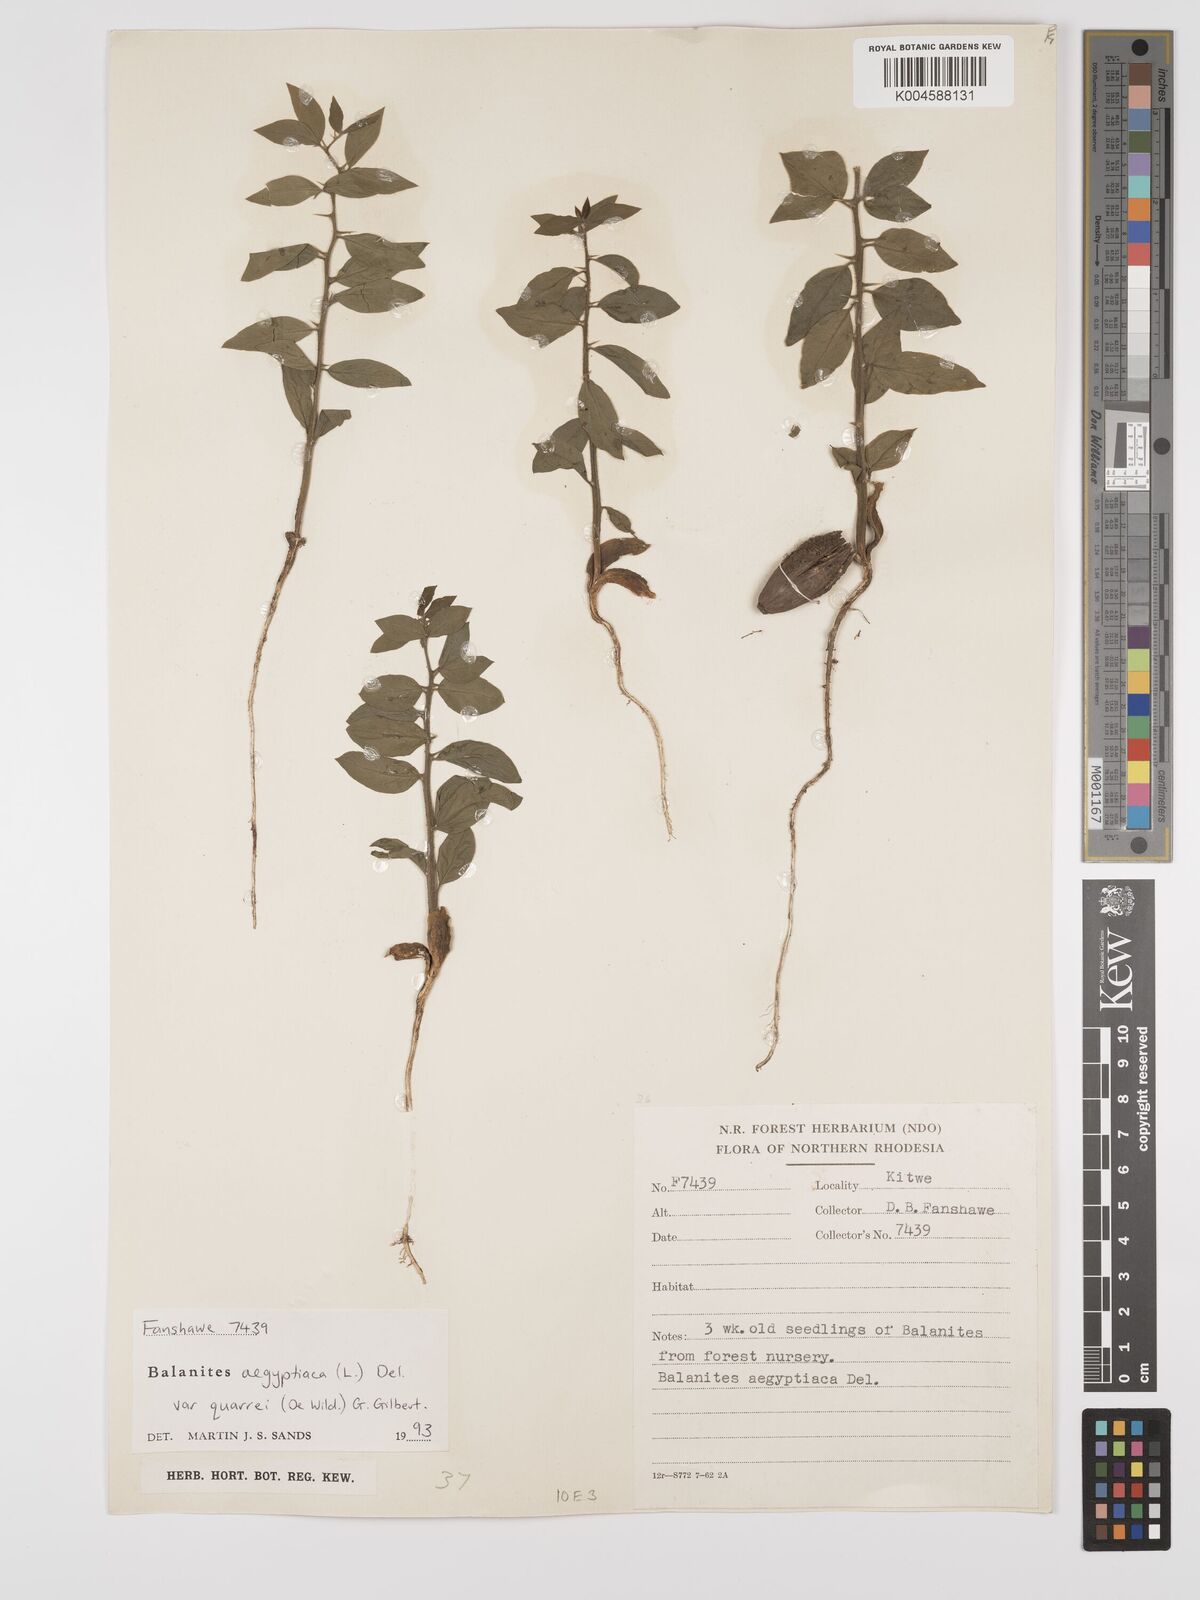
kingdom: Plantae
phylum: Tracheophyta
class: Magnoliopsida
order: Zygophyllales
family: Zygophyllaceae
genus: Balanites
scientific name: Balanites aegyptiaca
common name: Balanites
